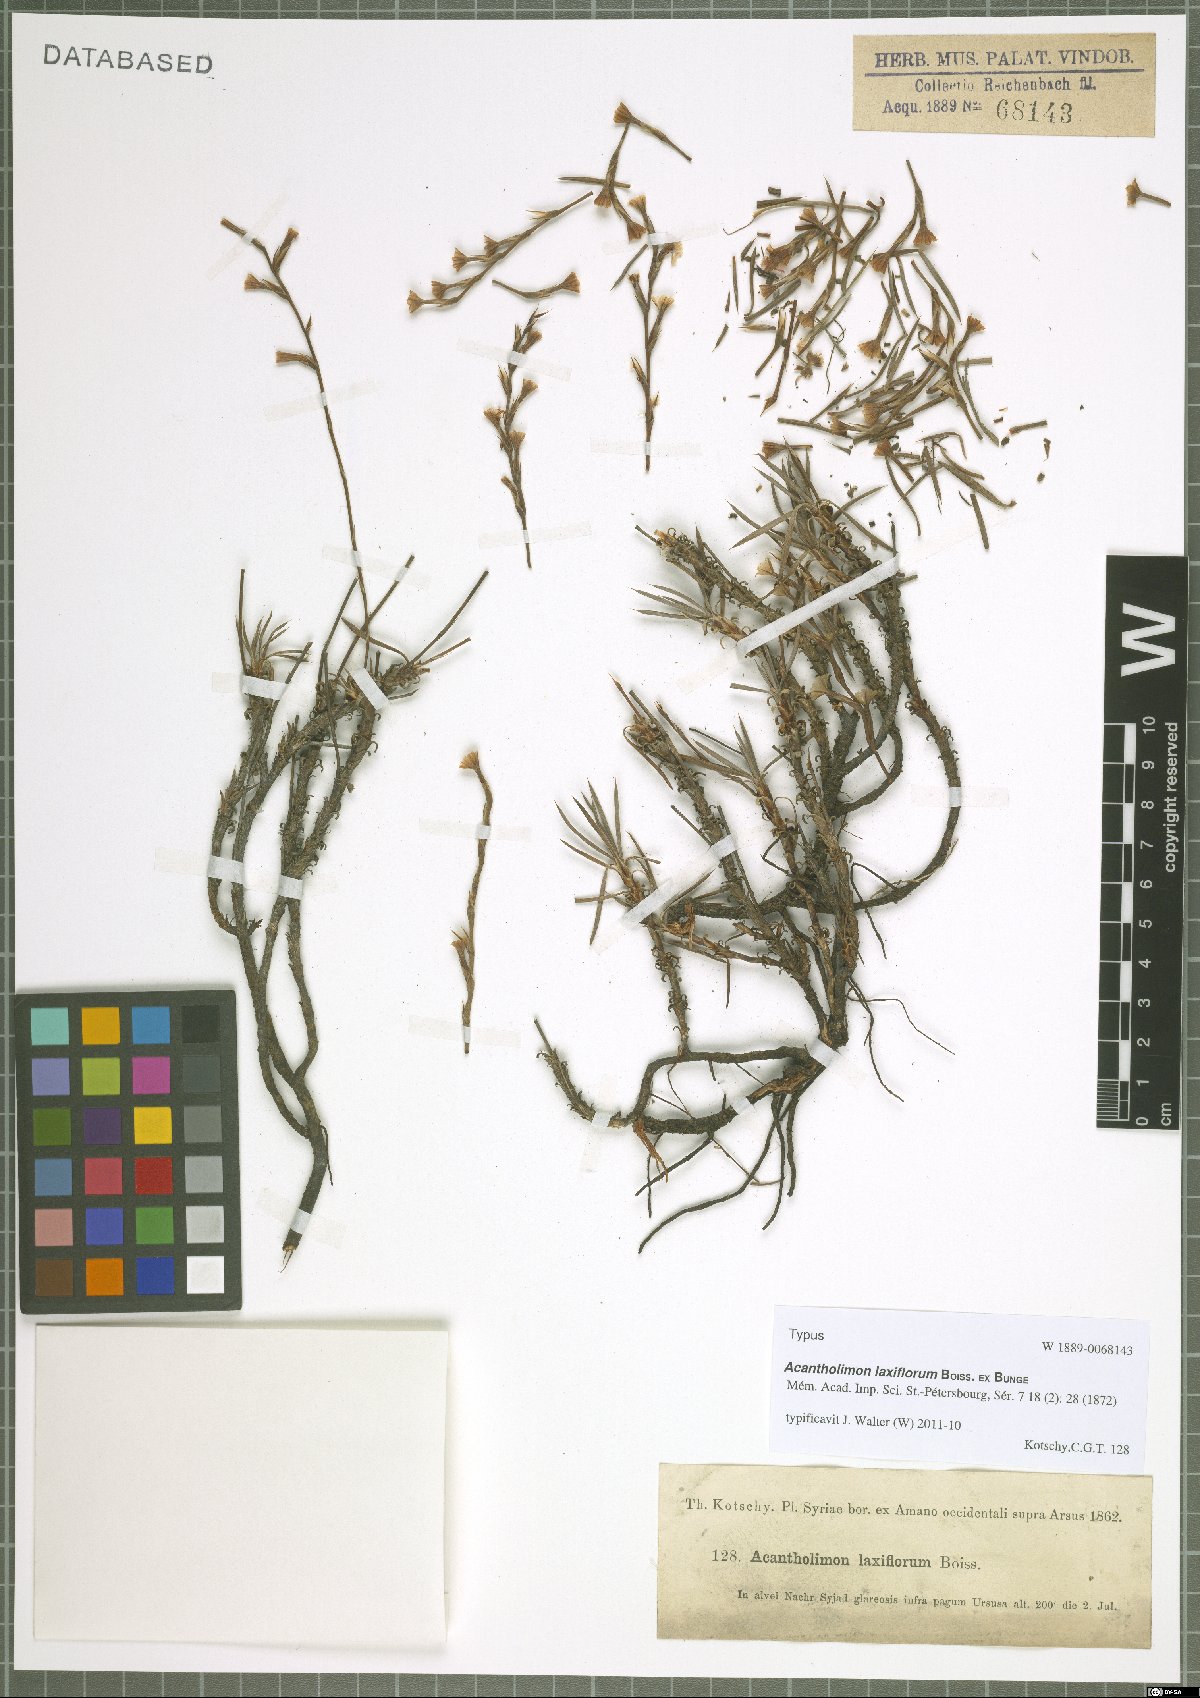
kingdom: Plantae
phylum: Tracheophyta
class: Magnoliopsida
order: Caryophyllales
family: Plumbaginaceae
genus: Acantholimon
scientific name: Acantholimon laxiflorum
